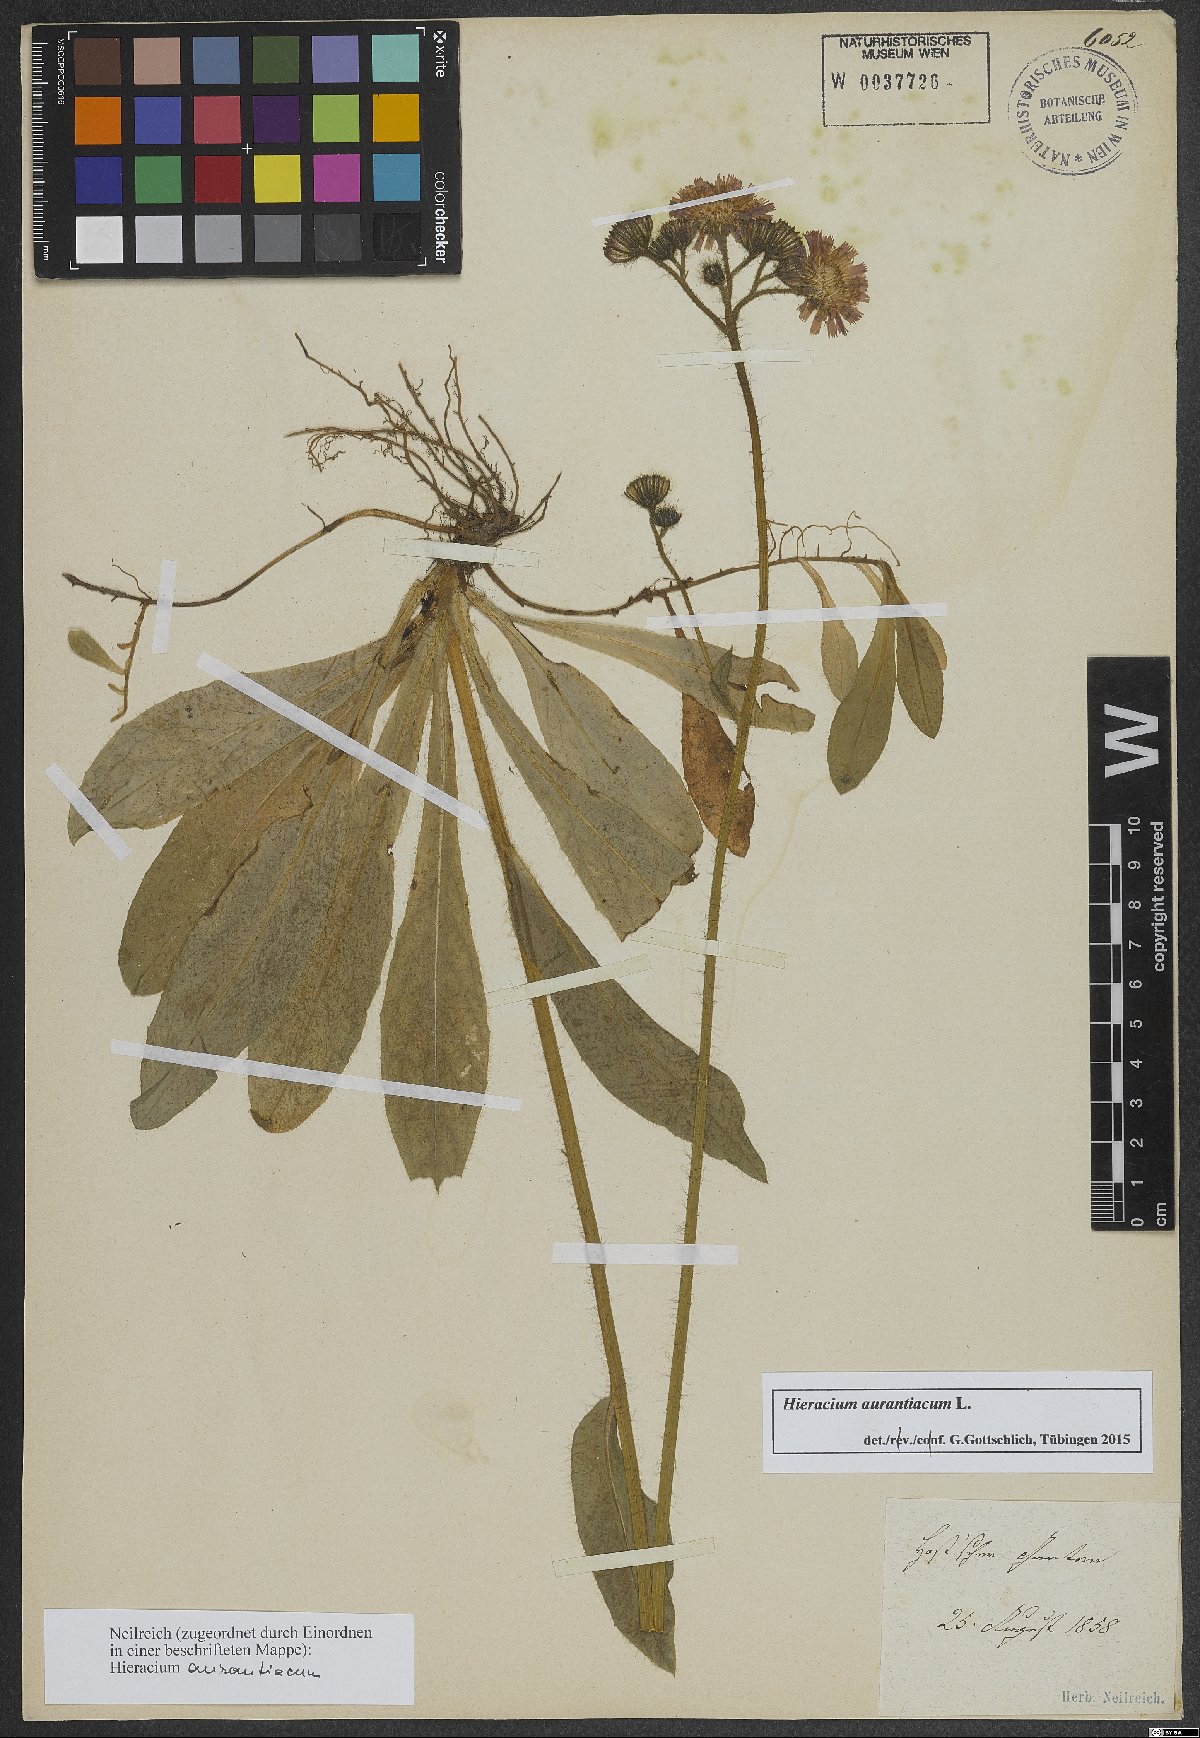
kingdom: Plantae
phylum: Tracheophyta
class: Magnoliopsida
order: Asterales
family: Asteraceae
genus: Pilosella
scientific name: Pilosella aurantiaca
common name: Fox-and-cubs
